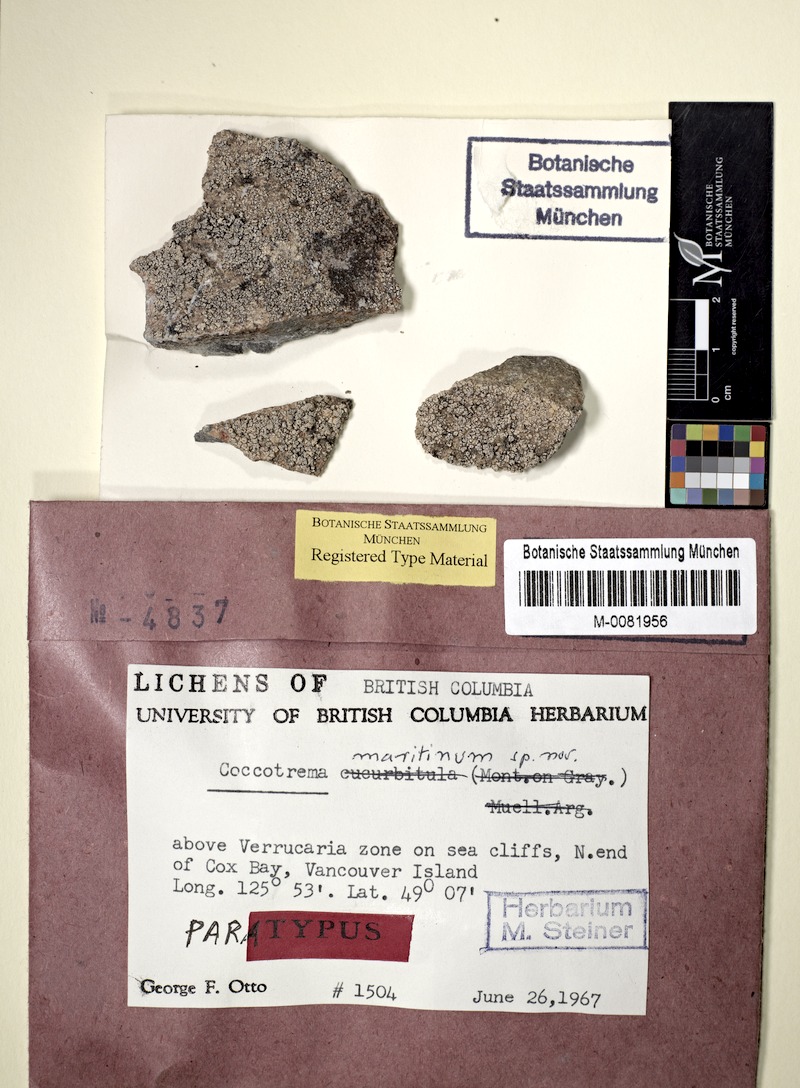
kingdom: Fungi
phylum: Ascomycota
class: Lecanoromycetes
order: Pertusariales
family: Coccotremataceae
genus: Coccotrema
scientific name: Coccotrema maritimum
